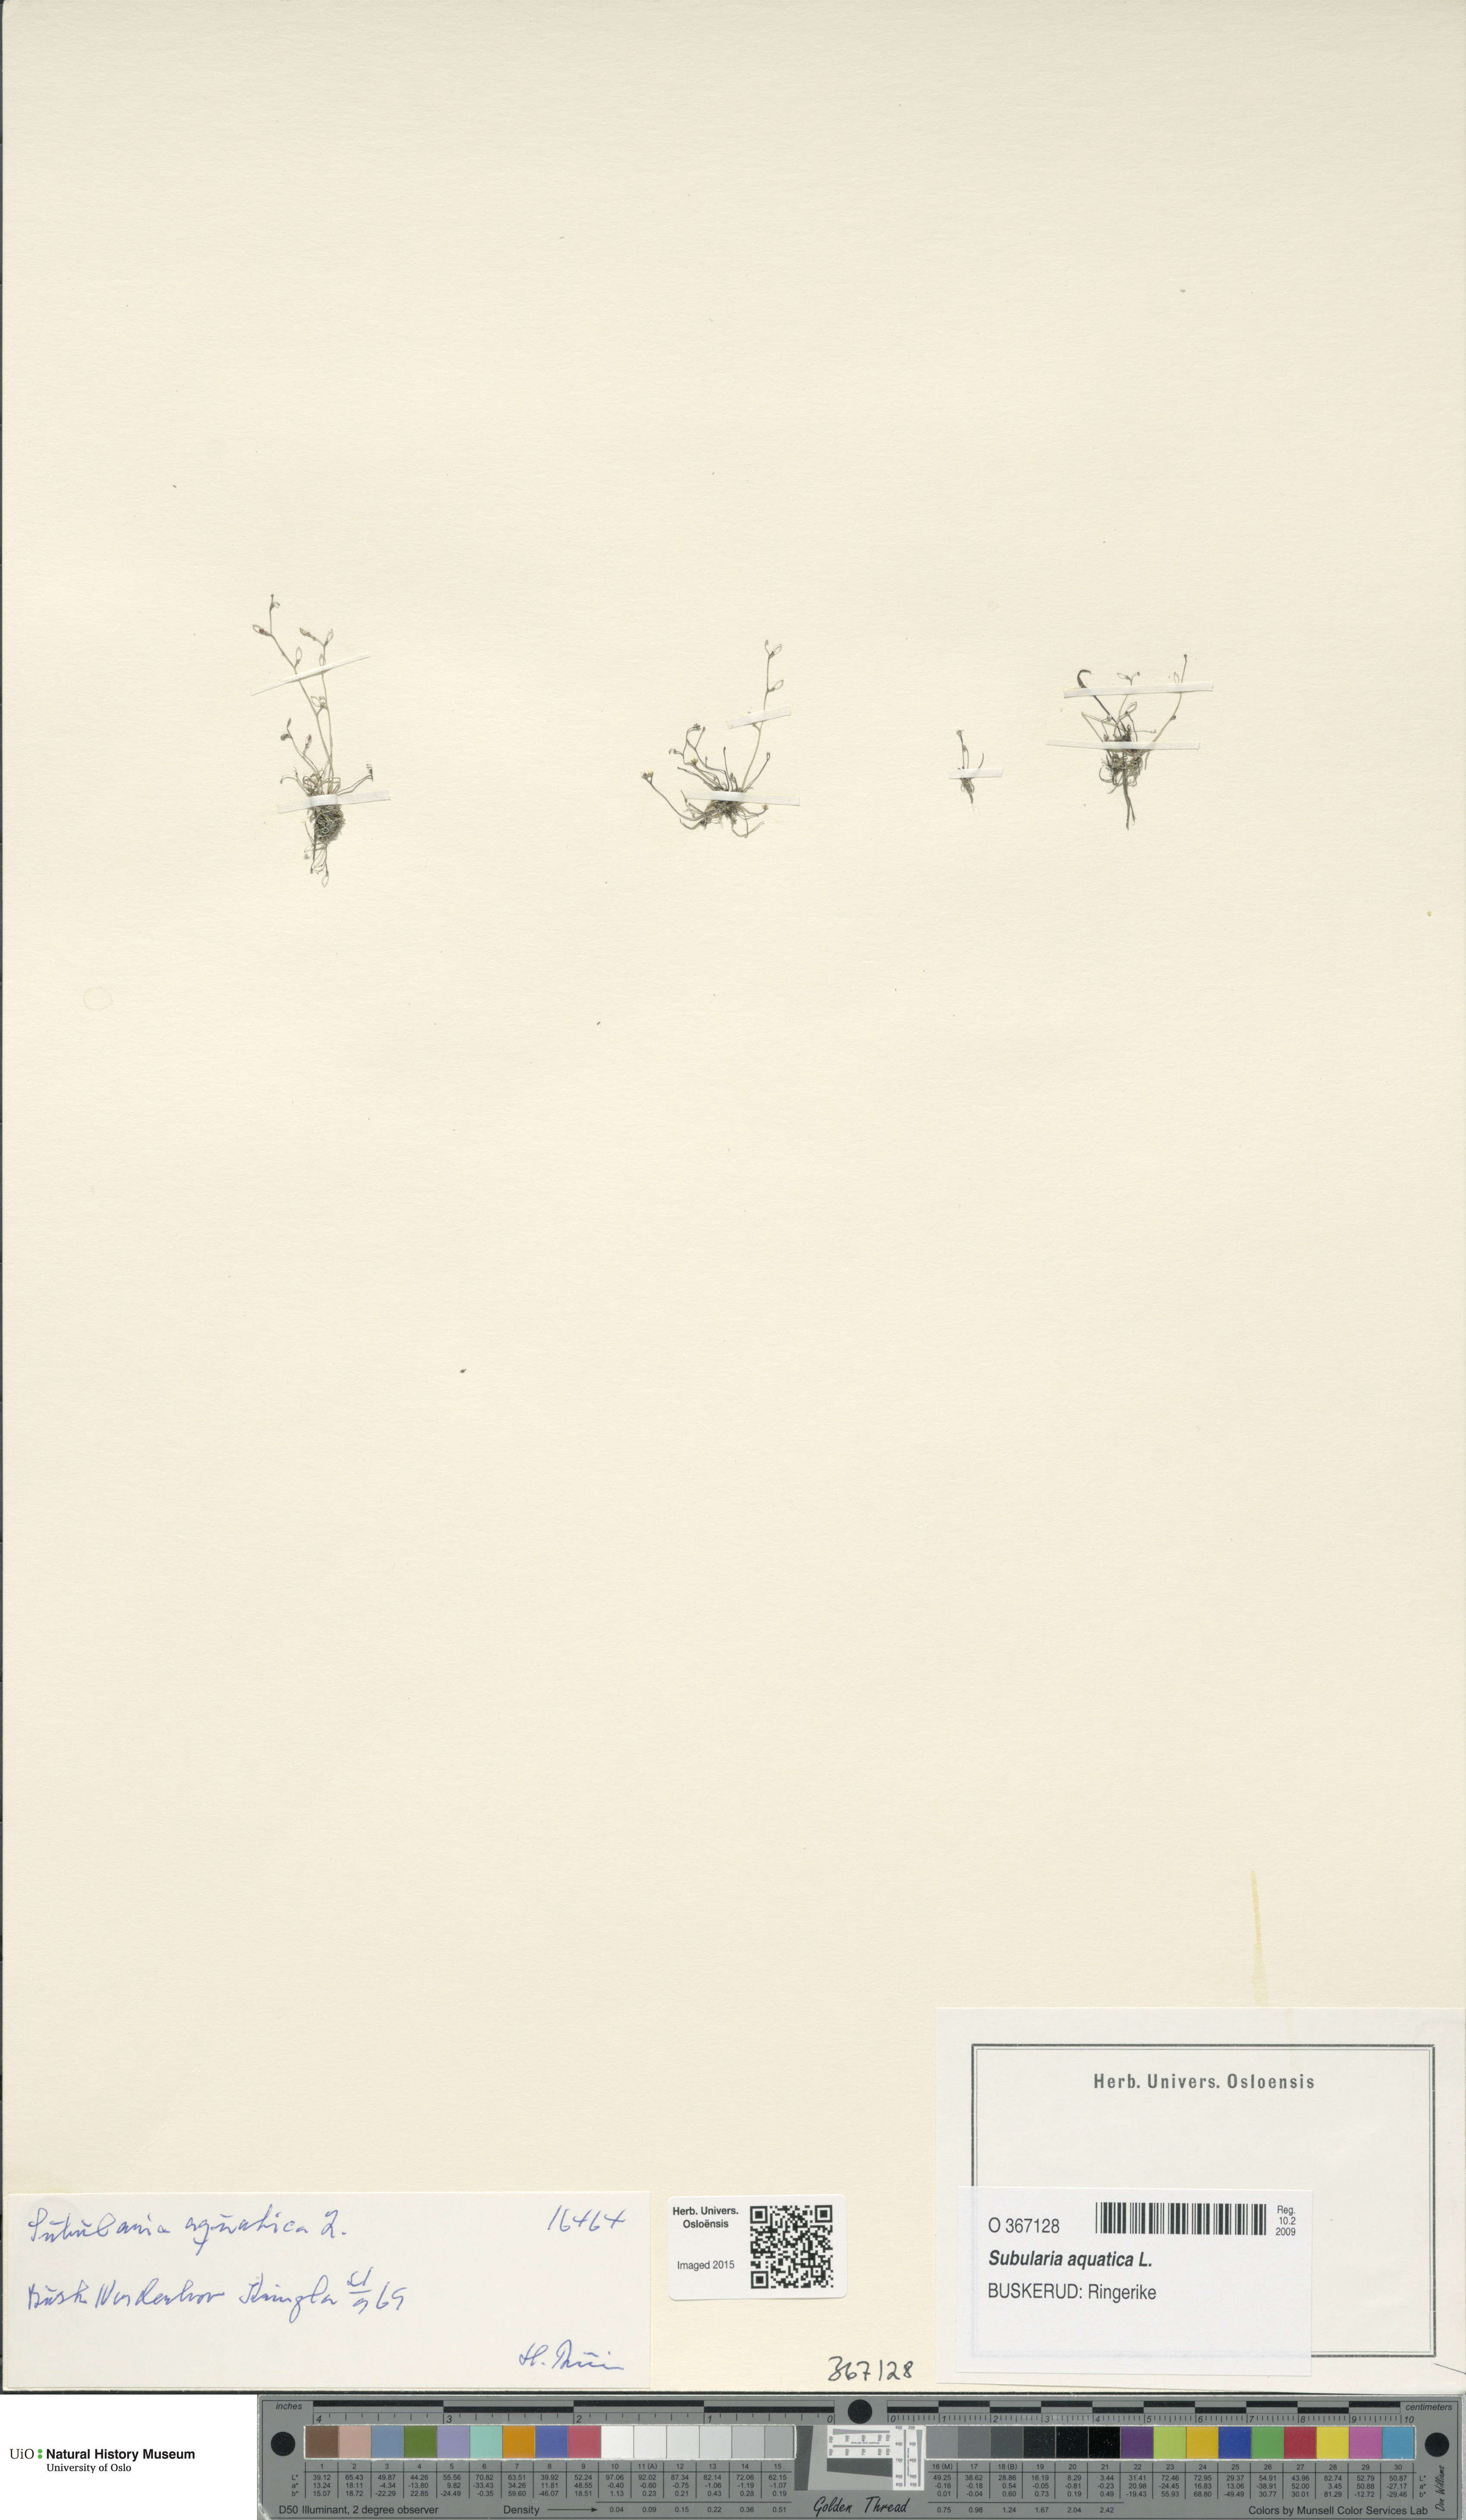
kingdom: Plantae
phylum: Tracheophyta
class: Magnoliopsida
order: Brassicales
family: Brassicaceae
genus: Subularia
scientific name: Subularia aquatica
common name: Awlwort
